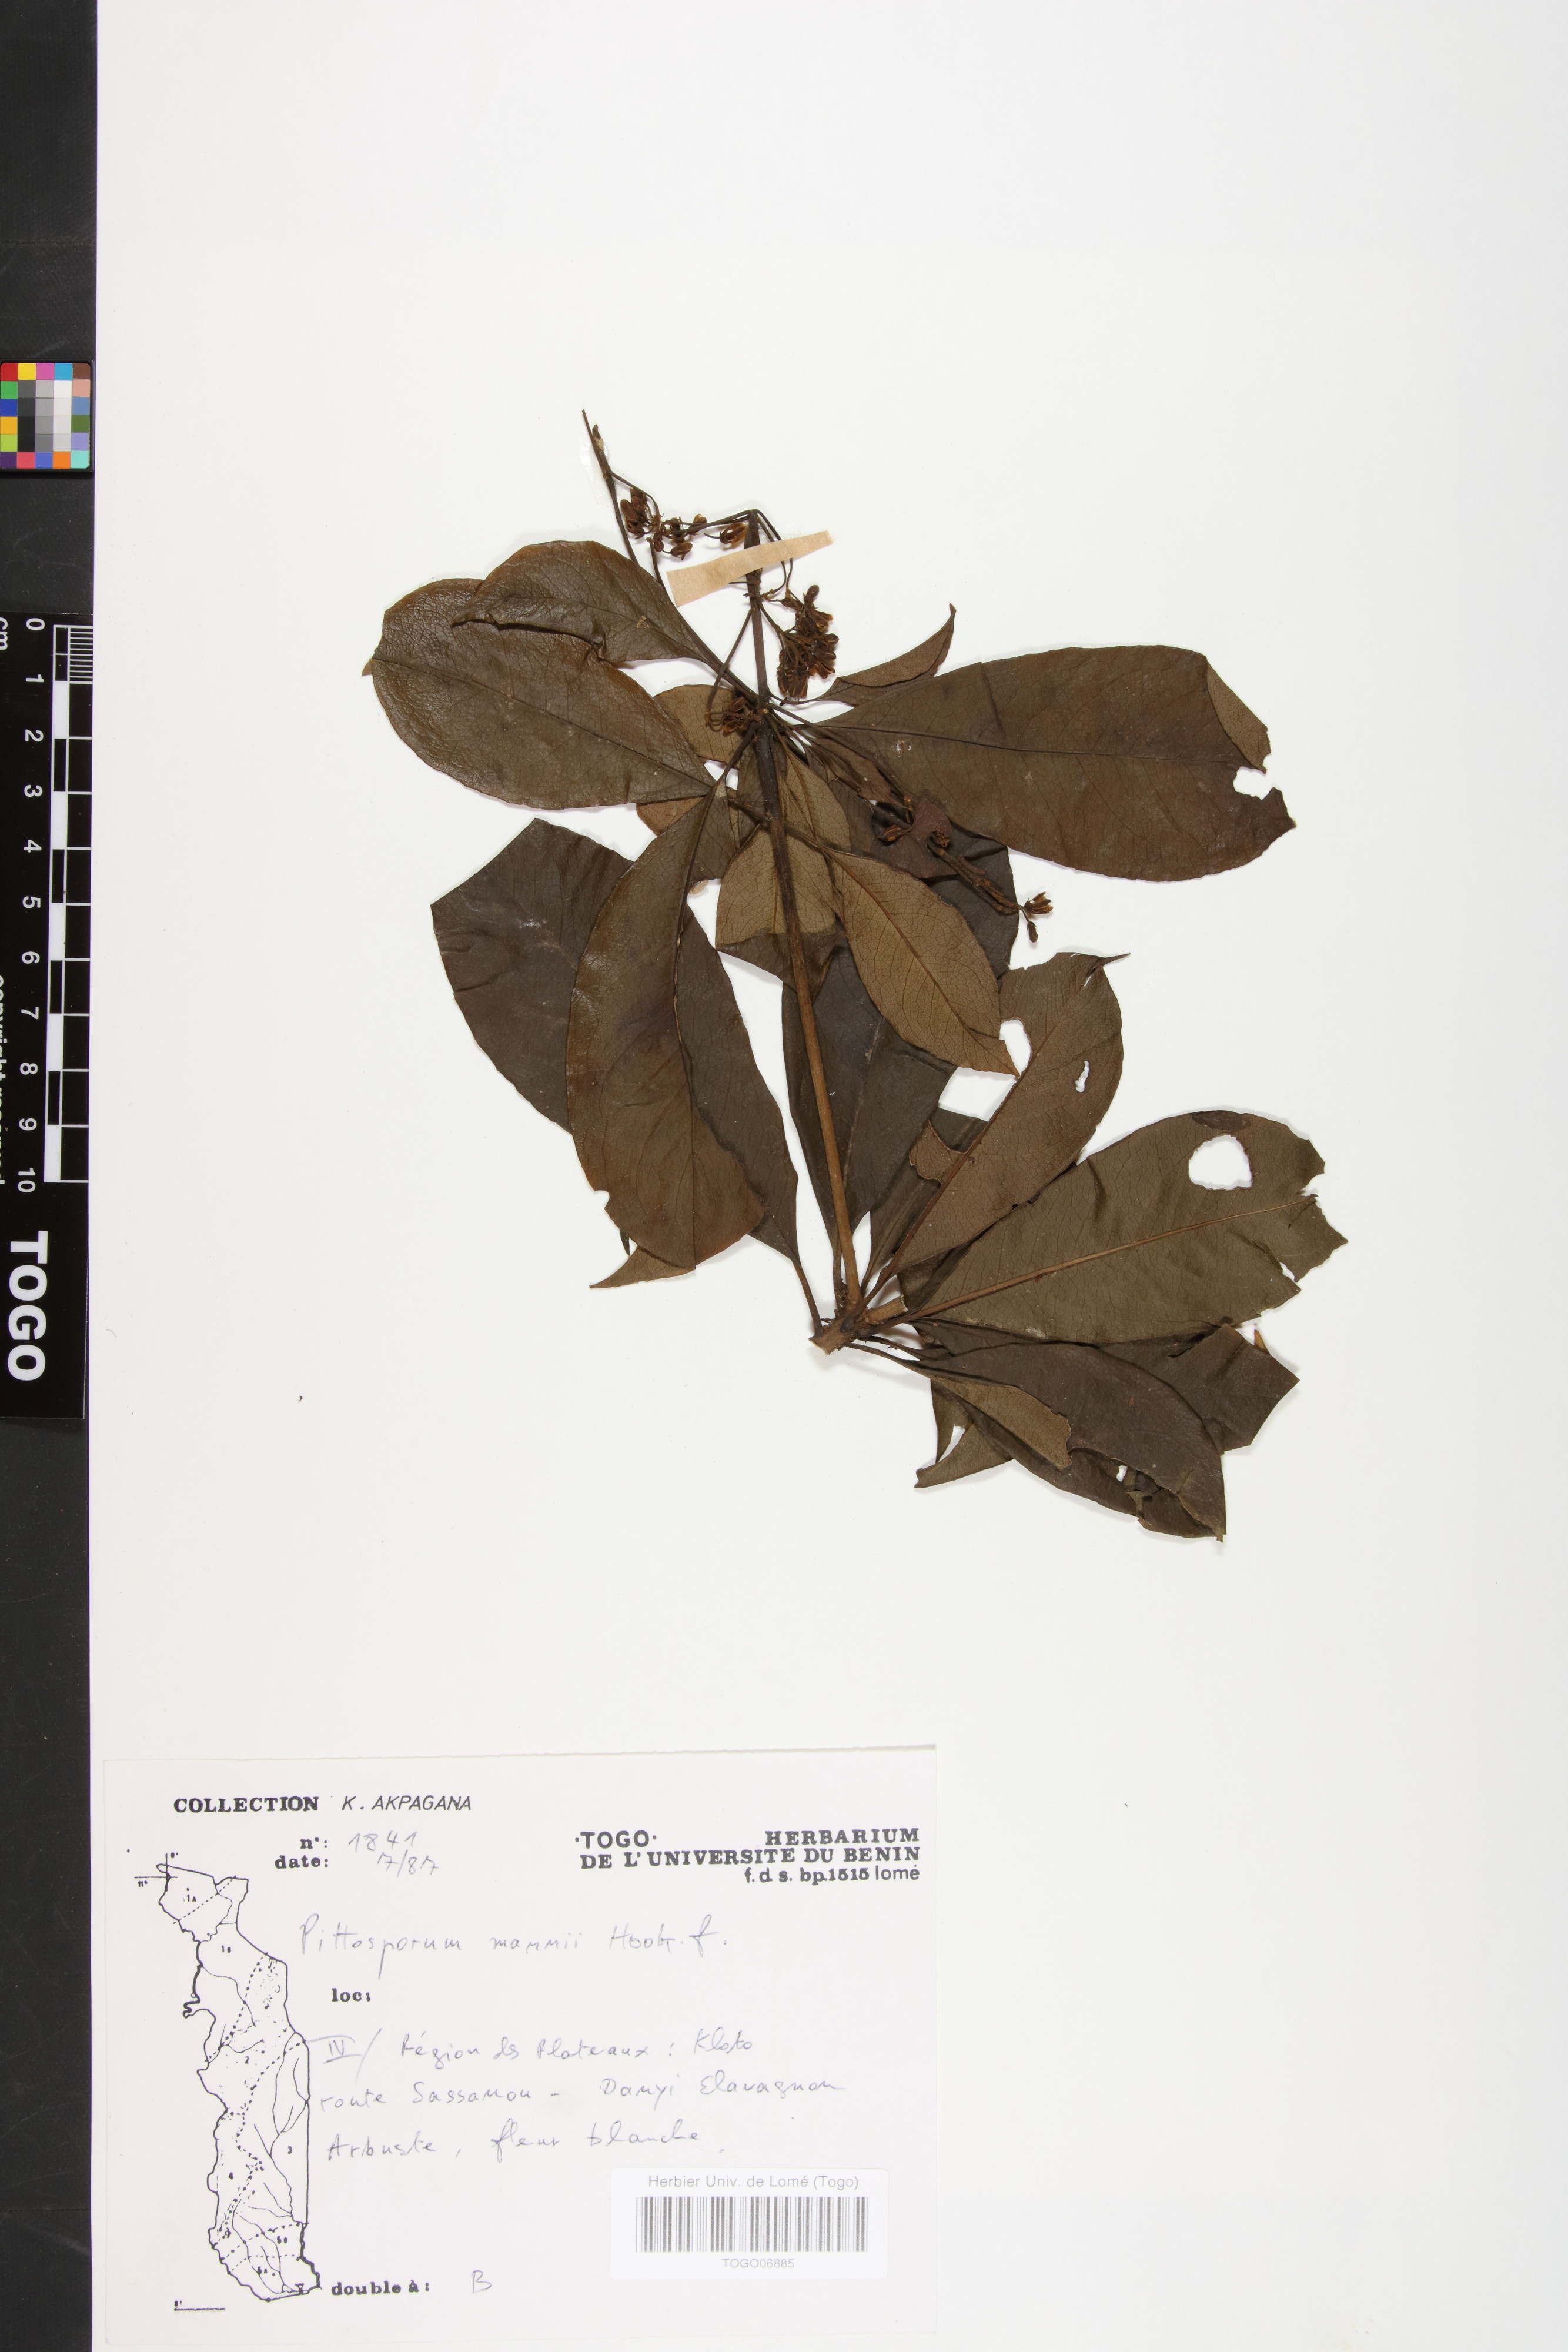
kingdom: Plantae
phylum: Tracheophyta
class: Magnoliopsida
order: Apiales
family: Pittosporaceae
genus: Pittosporum
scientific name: Pittosporum viridiflorum
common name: Cape cheesewood
